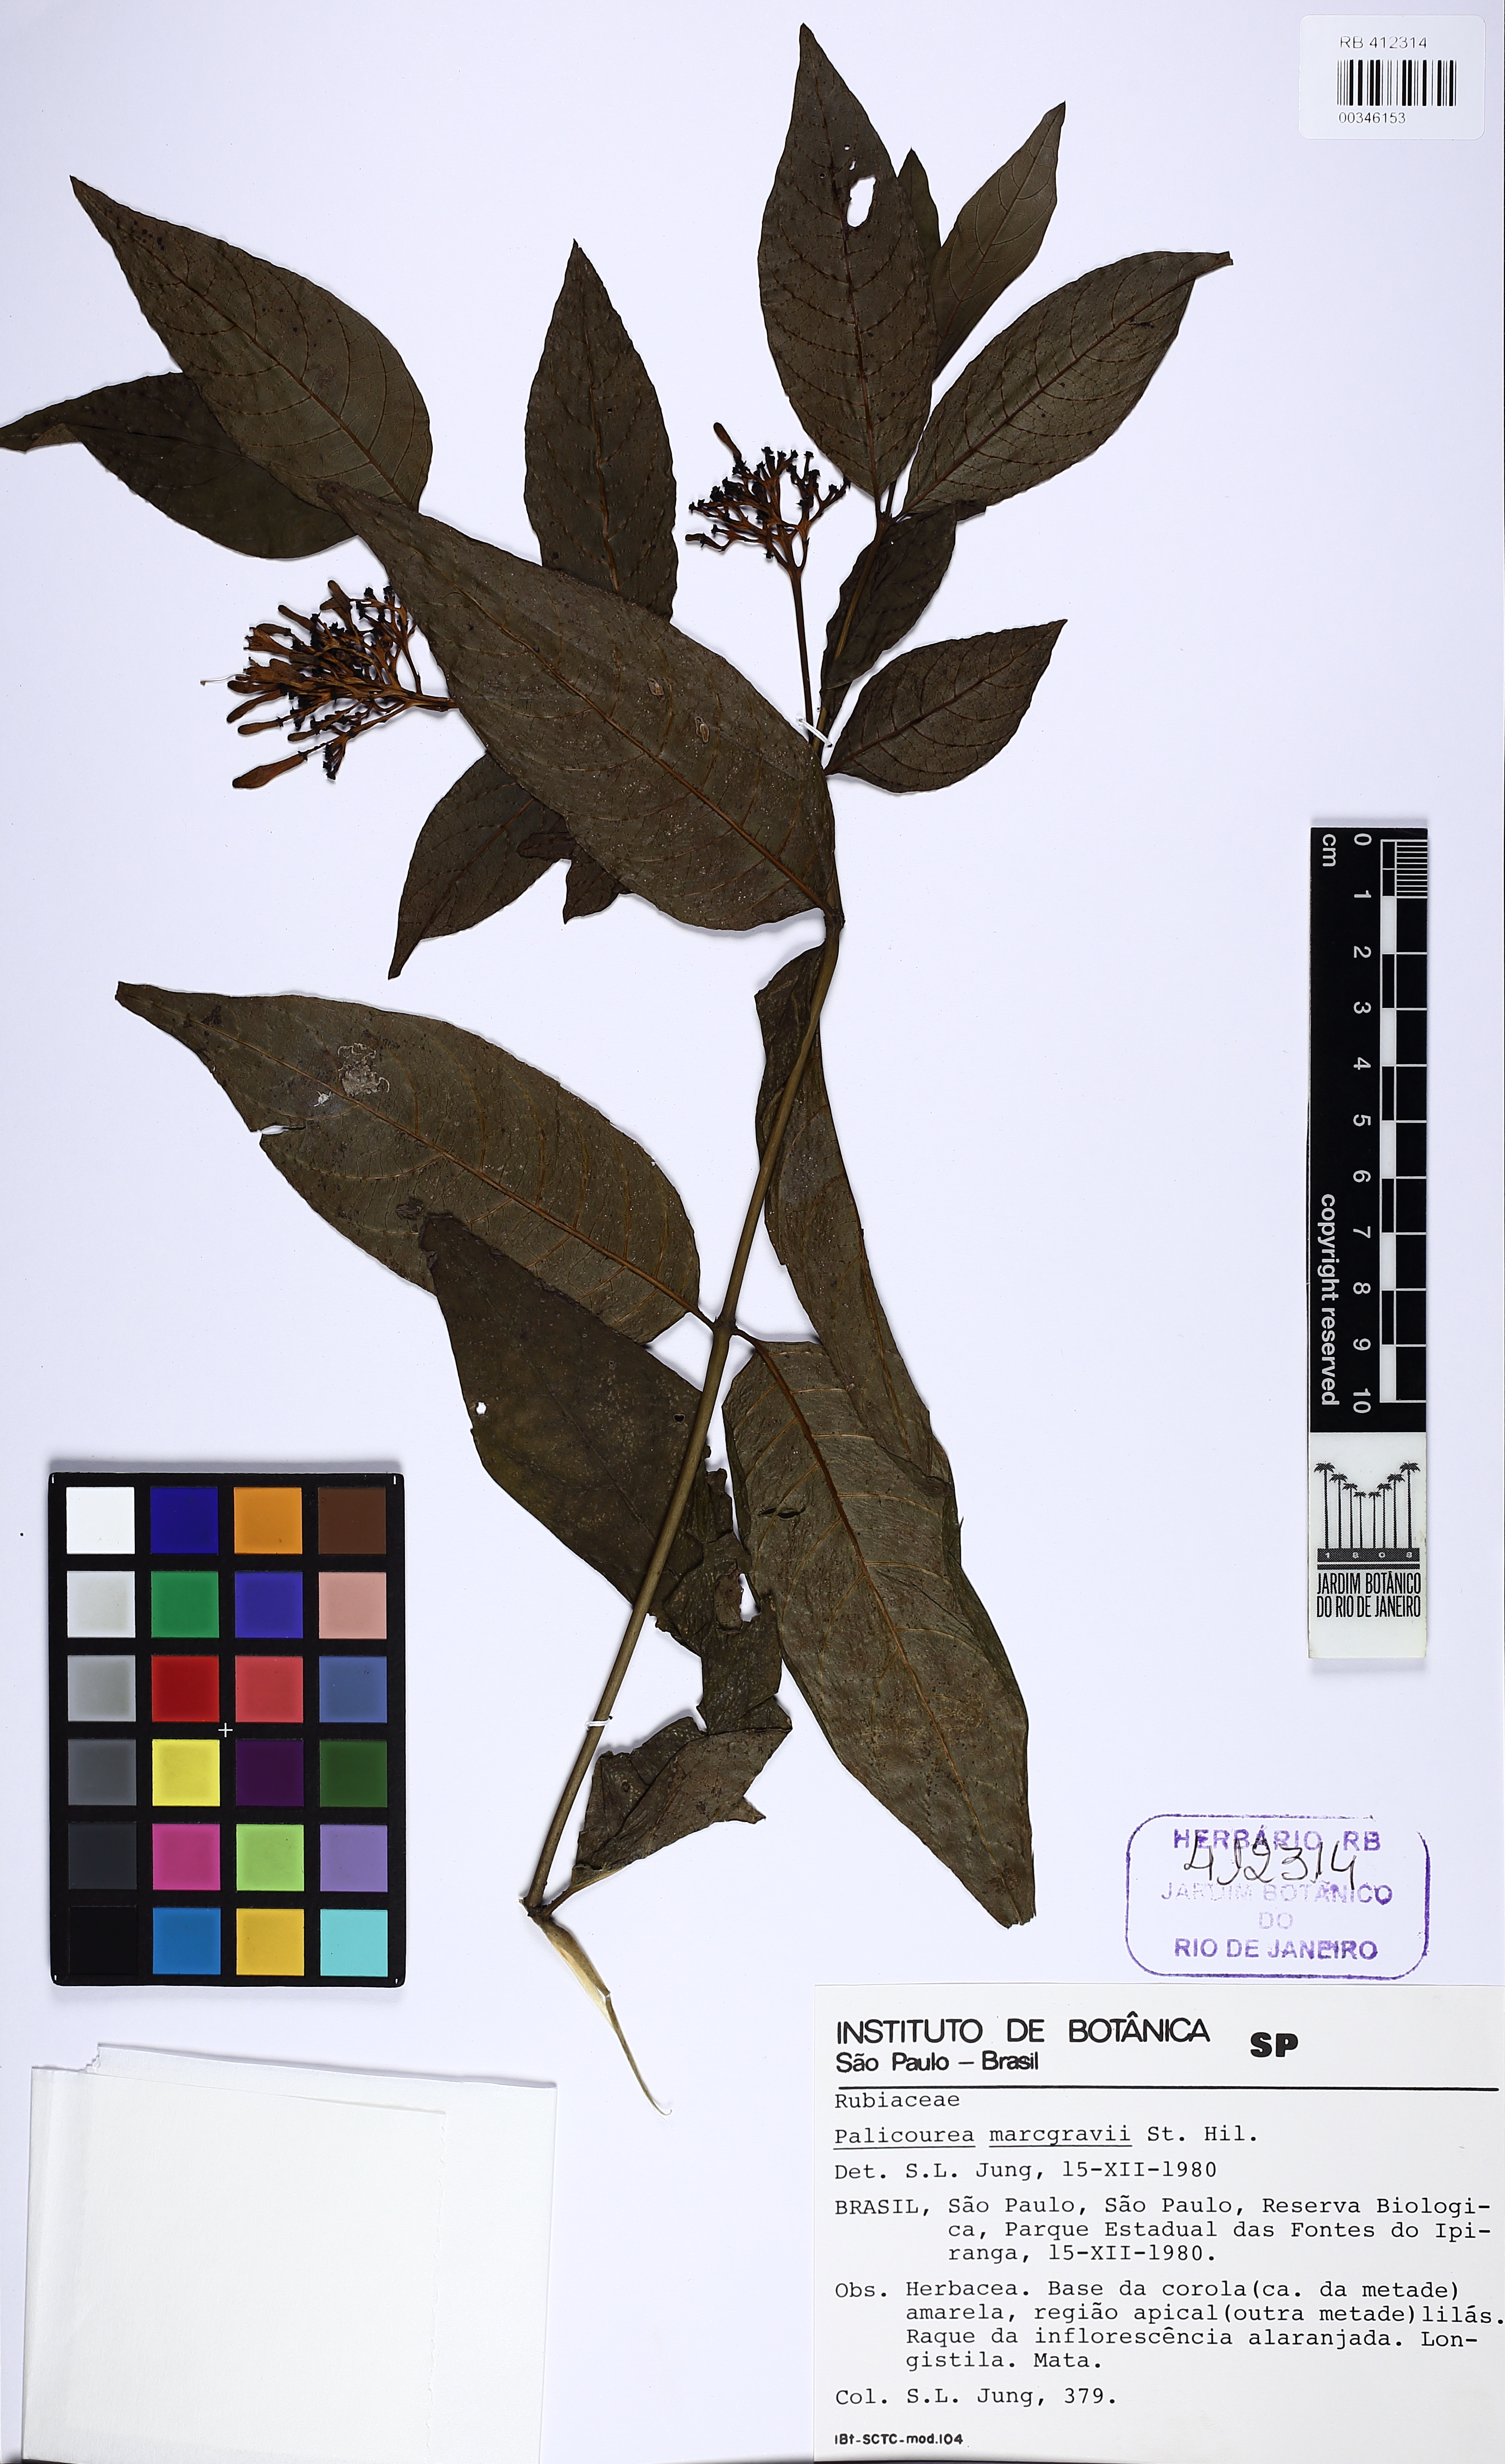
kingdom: Plantae
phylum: Tracheophyta
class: Magnoliopsida
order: Gentianales
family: Rubiaceae
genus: Palicourea
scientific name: Palicourea marcgravii
